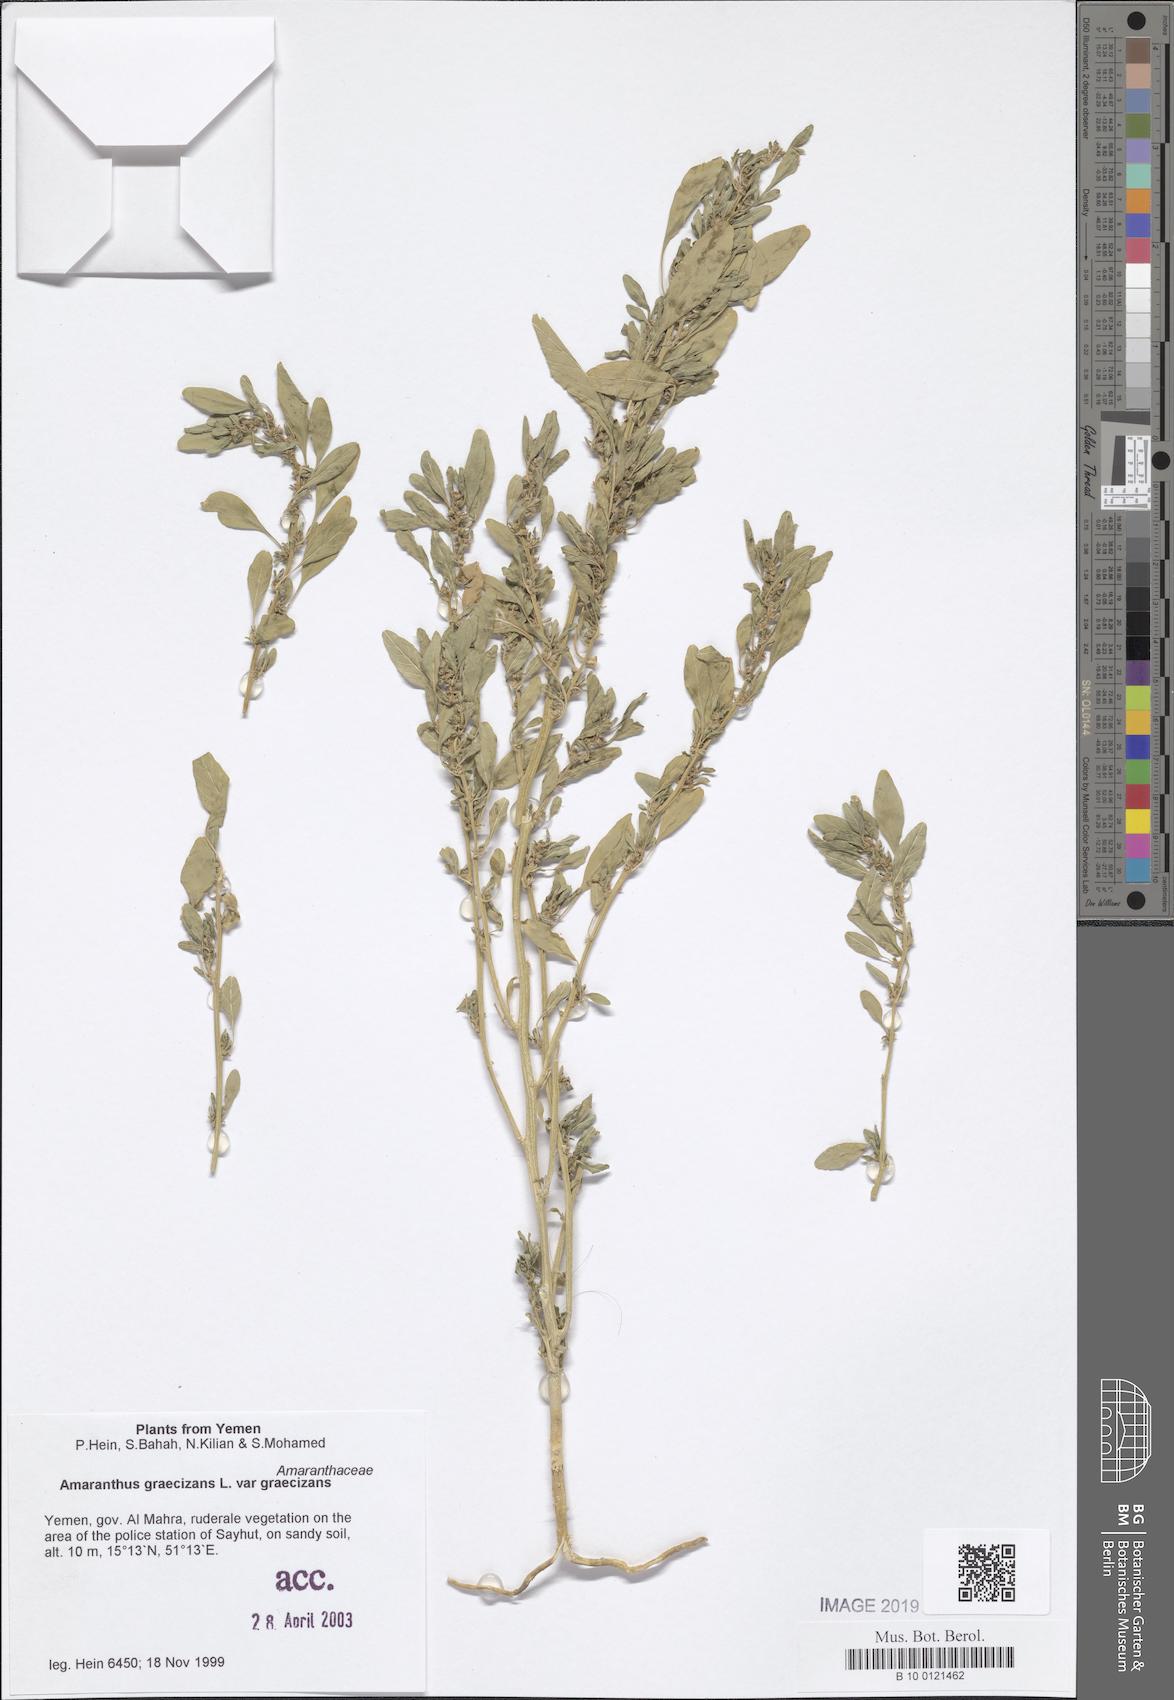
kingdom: Plantae
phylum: Tracheophyta
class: Magnoliopsida
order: Caryophyllales
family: Amaranthaceae
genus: Amaranthus
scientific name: Amaranthus graecizans
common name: Mediterranean amaranth
